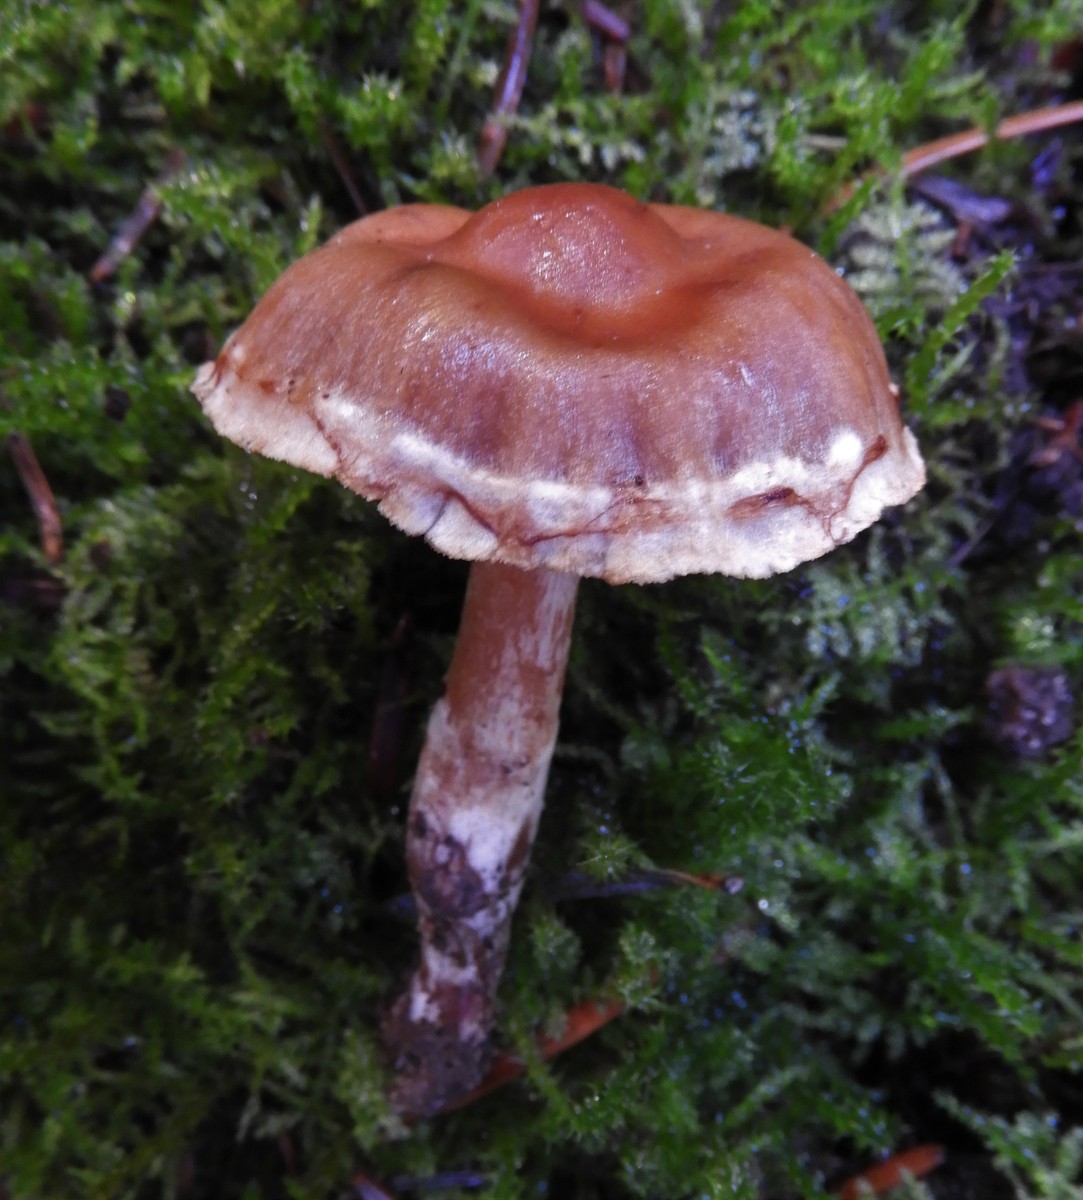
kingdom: Fungi
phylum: Basidiomycota
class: Agaricomycetes
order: Agaricales
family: Cortinariaceae
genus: Cortinarius
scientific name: Cortinarius
